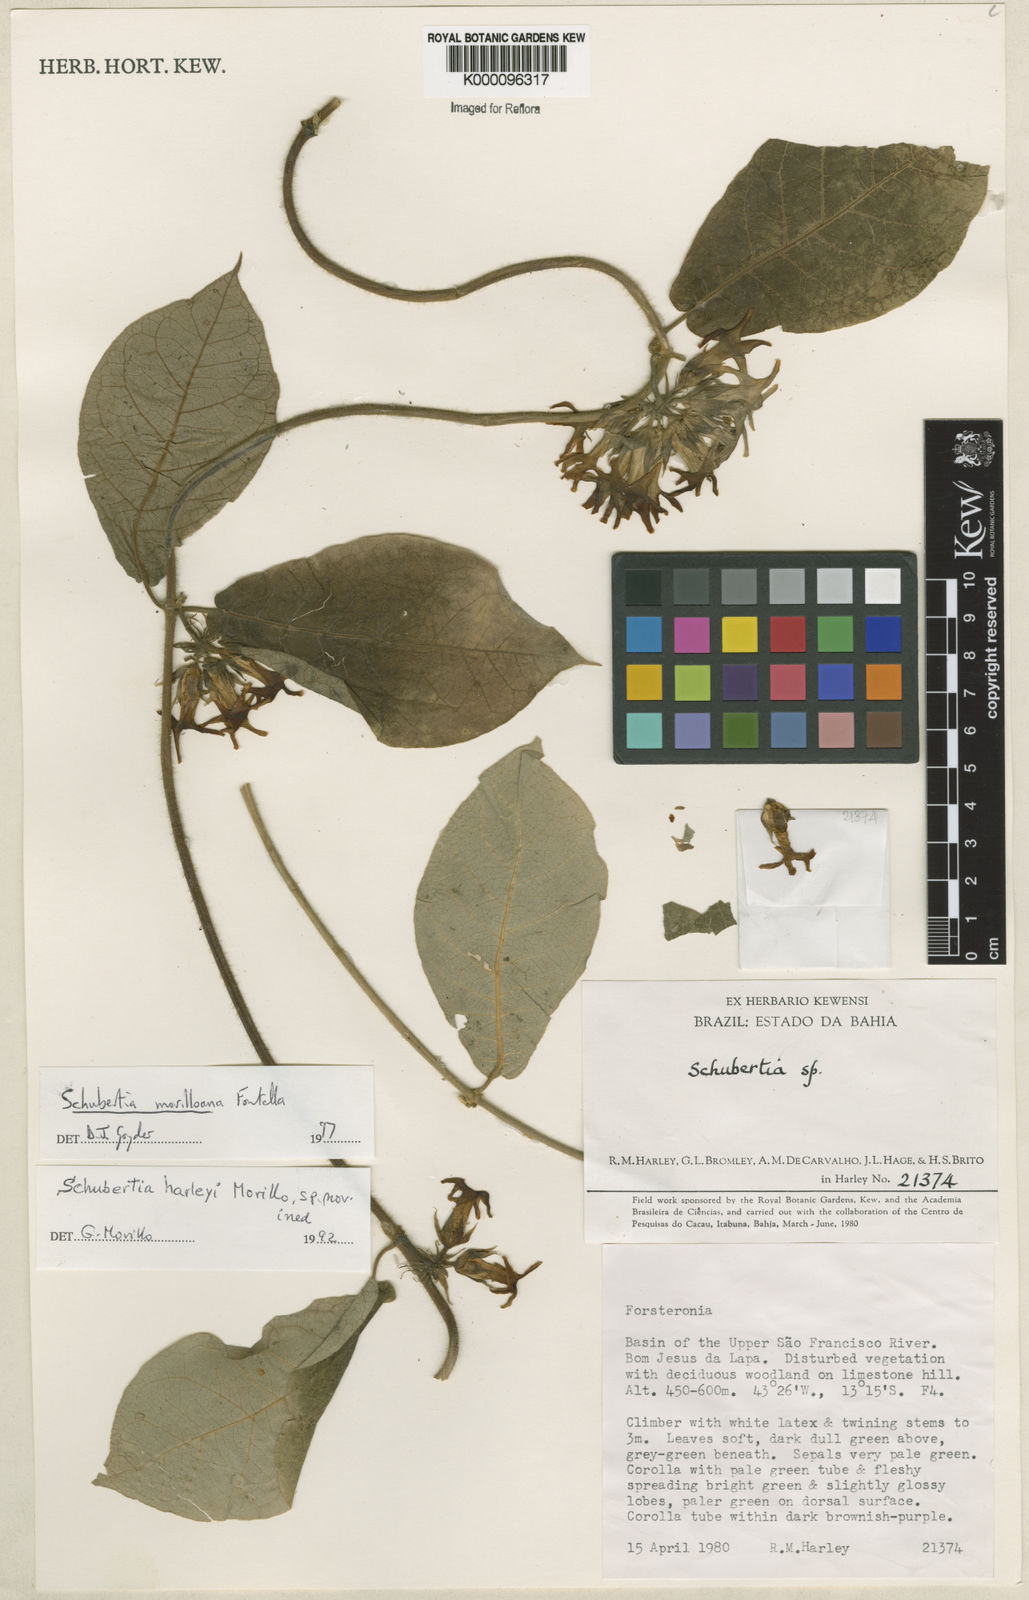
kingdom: Plantae
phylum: Tracheophyta
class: Magnoliopsida
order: Gentianales
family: Apocynaceae
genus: Schubertia
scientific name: Schubertia multiflora
